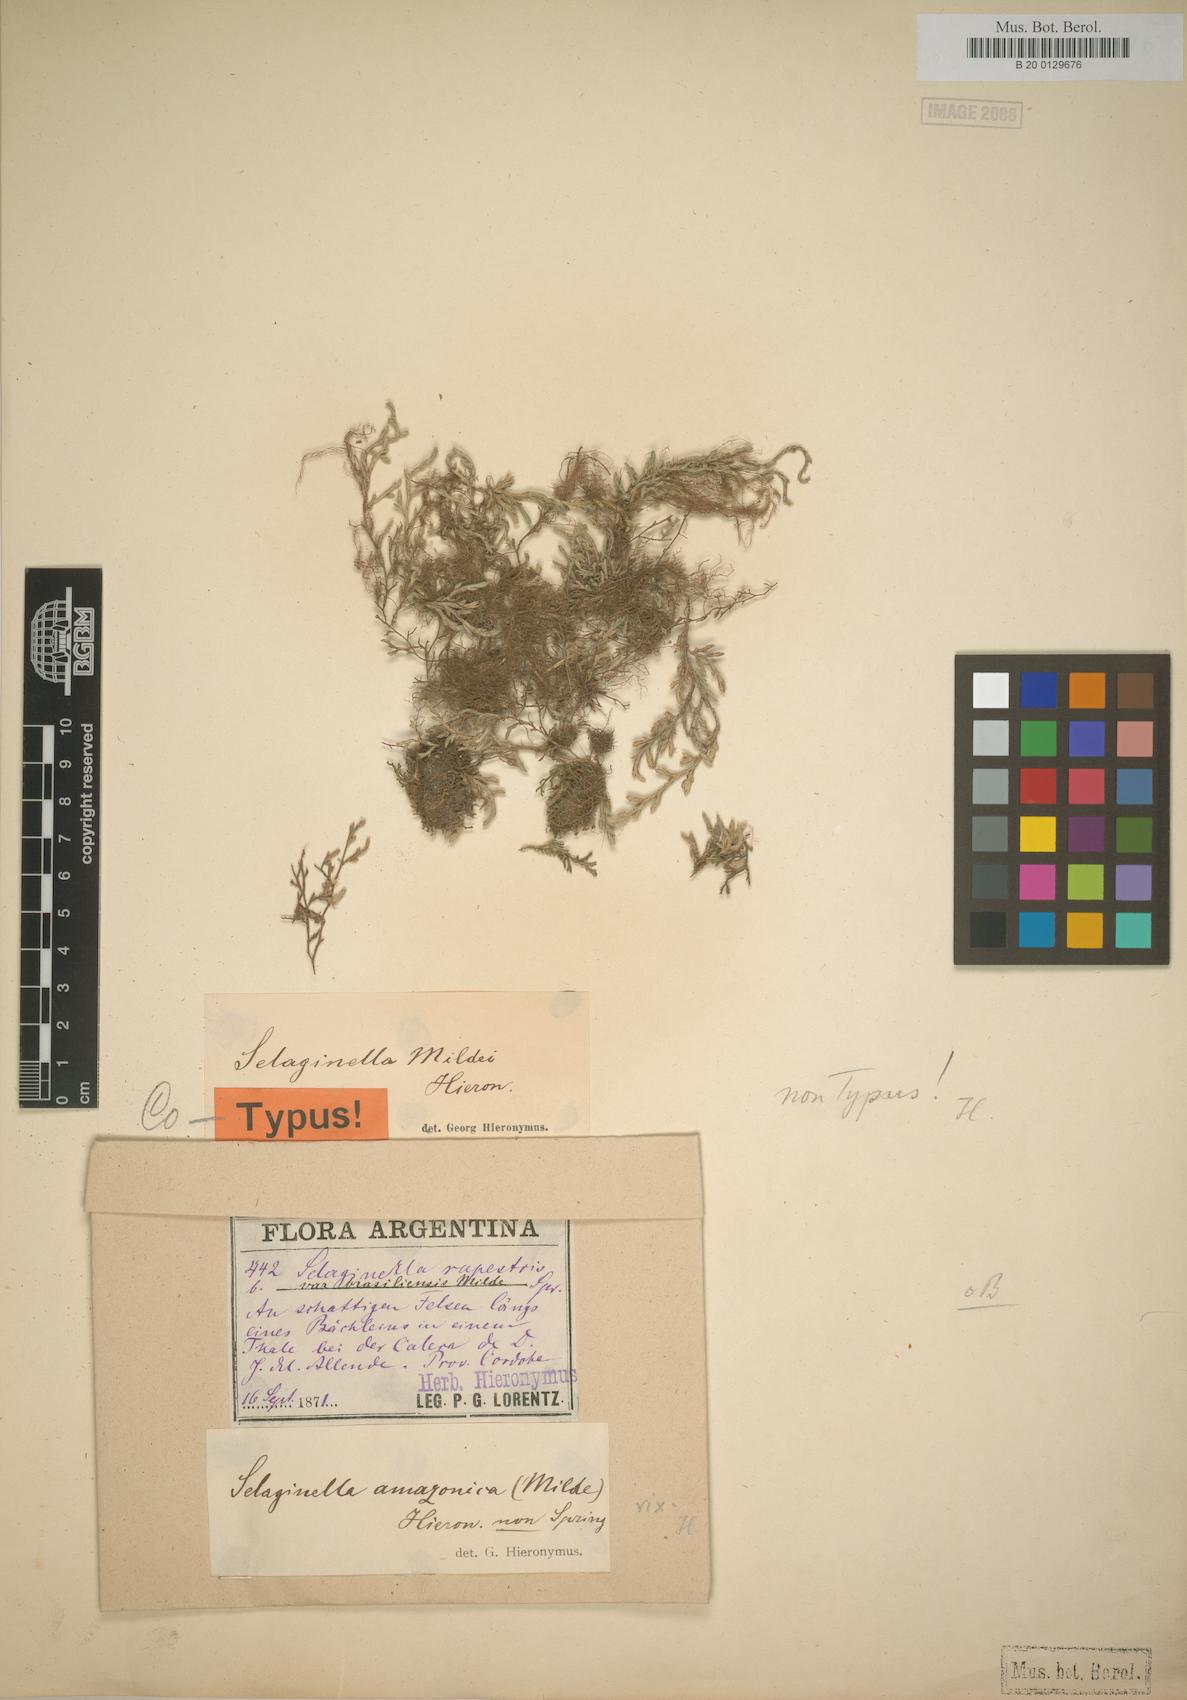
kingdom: Plantae
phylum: Tracheophyta
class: Lycopodiopsida
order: Selaginellales
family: Selaginellaceae
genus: Selaginella
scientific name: Selaginella sellowii
